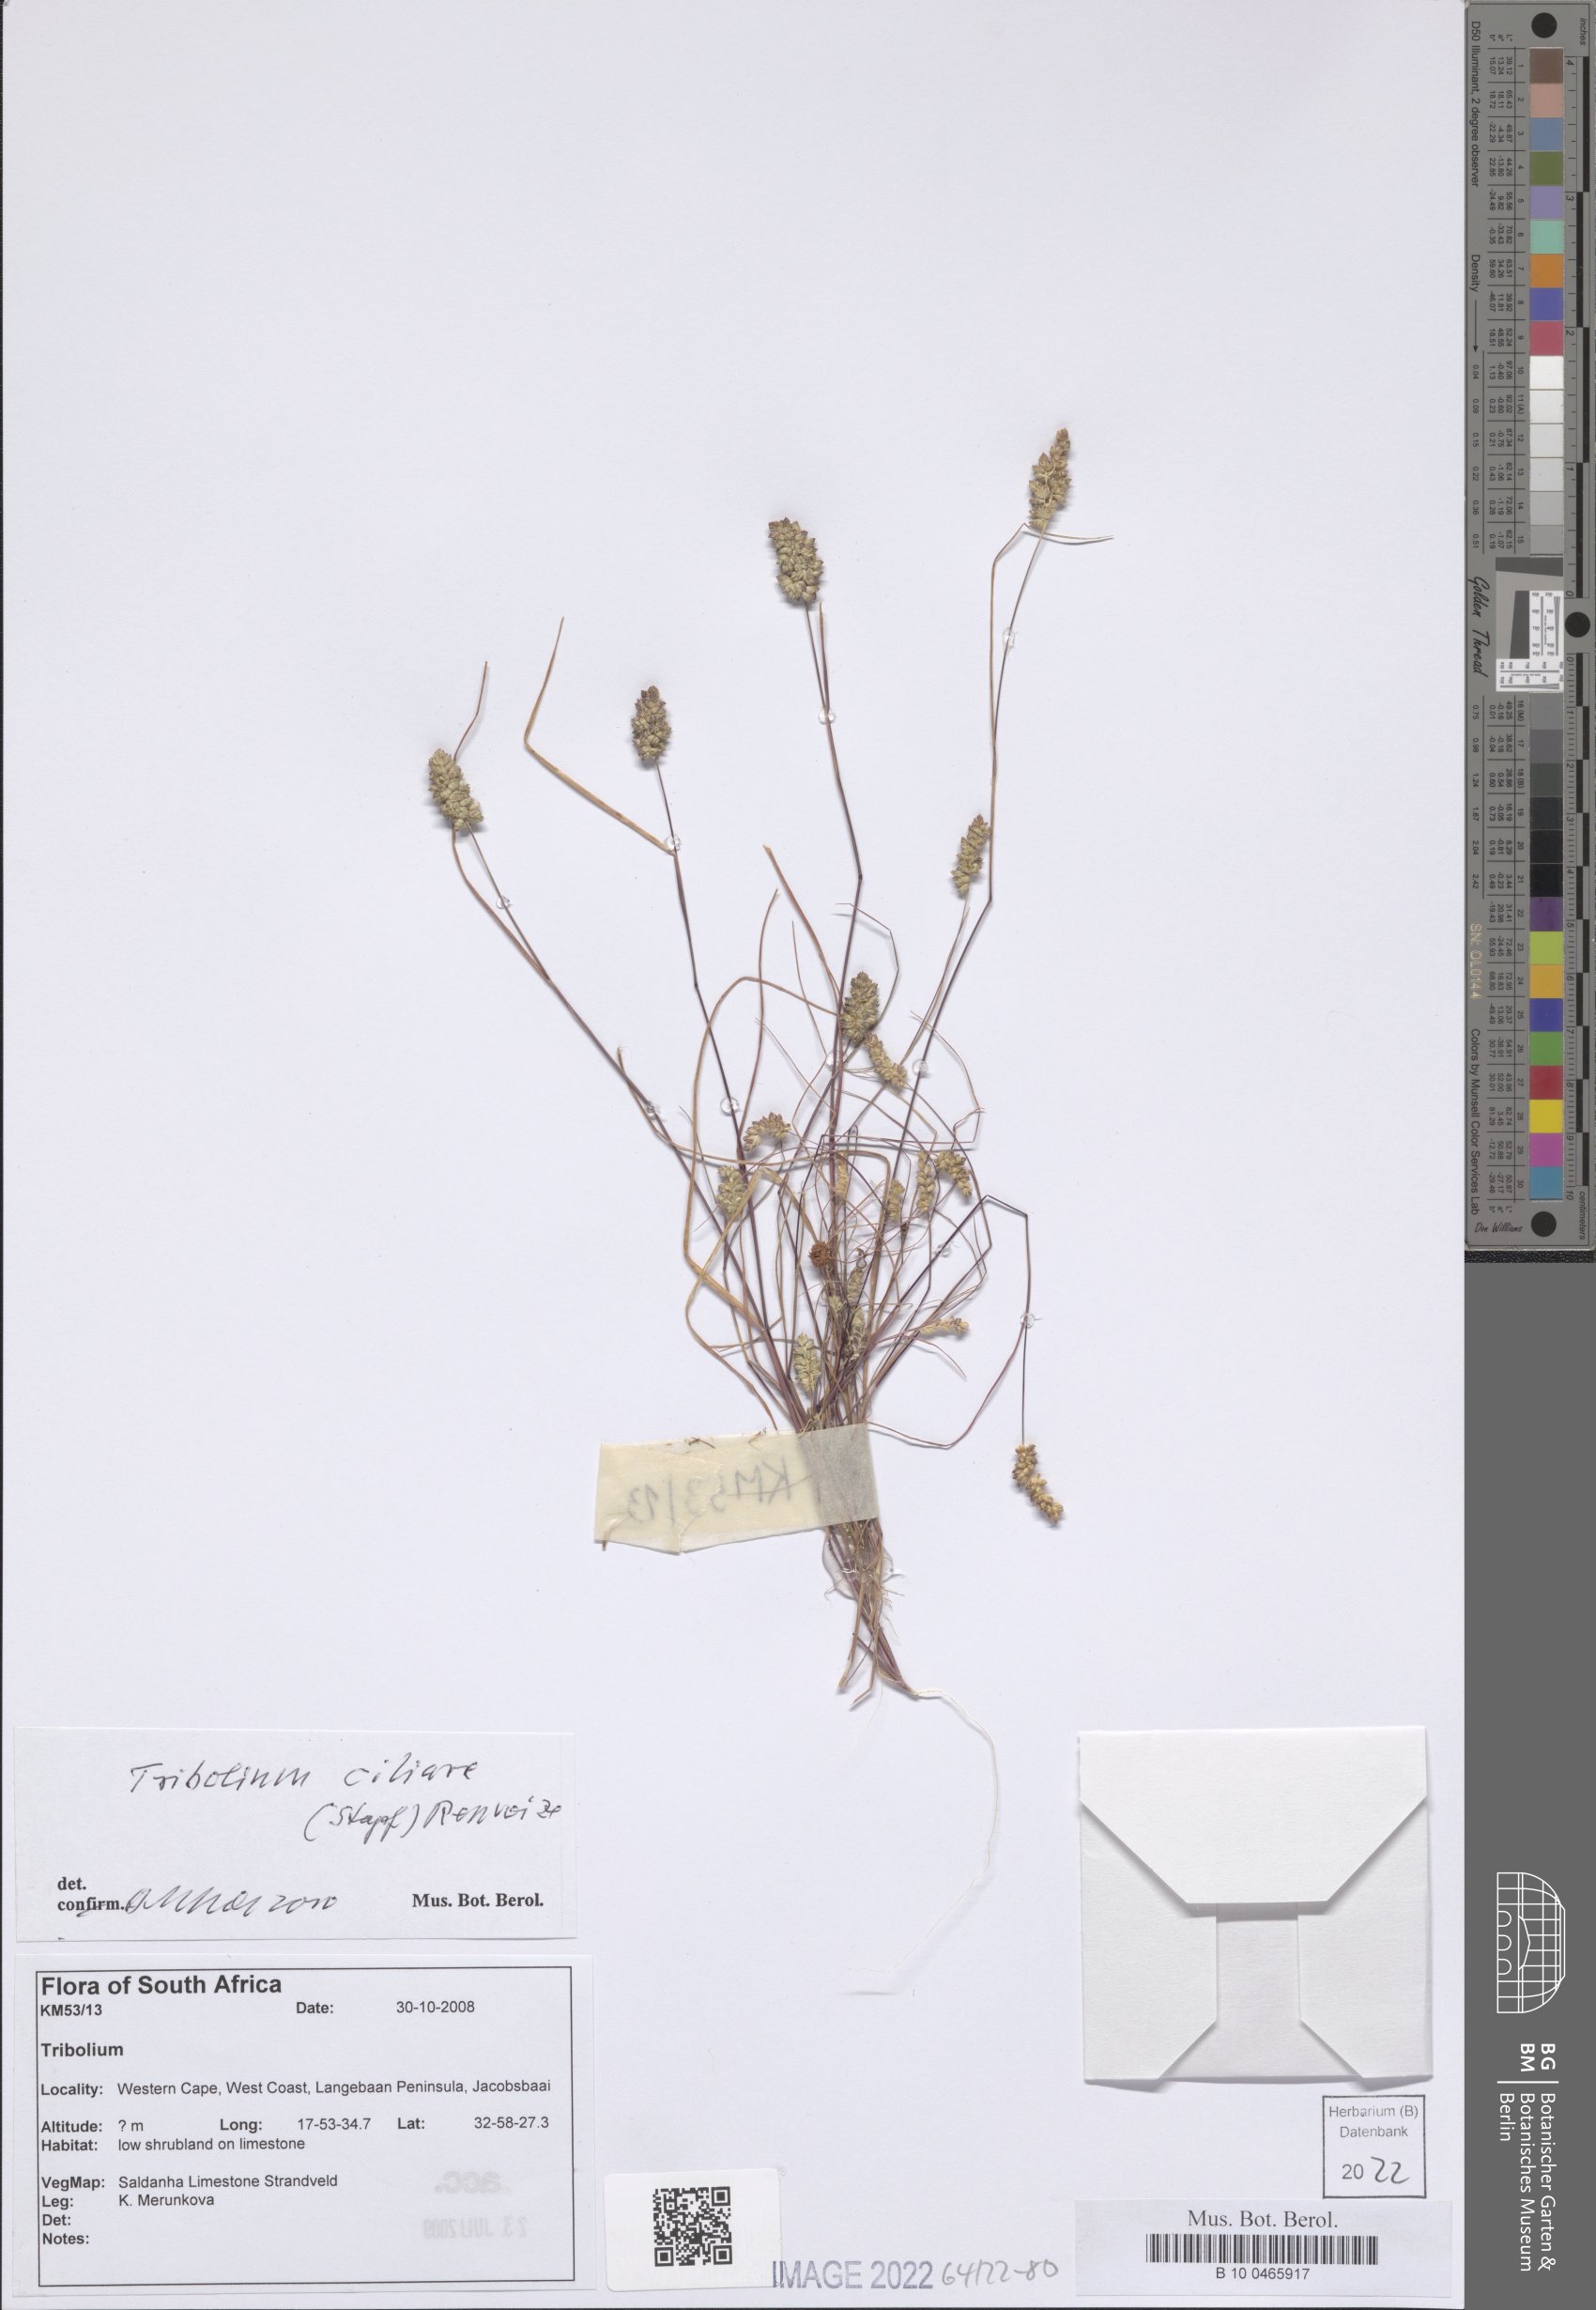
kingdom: Plantae
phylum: Tracheophyta
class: Liliopsida
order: Poales
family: Poaceae
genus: Tribolium
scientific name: Tribolium ciliare
